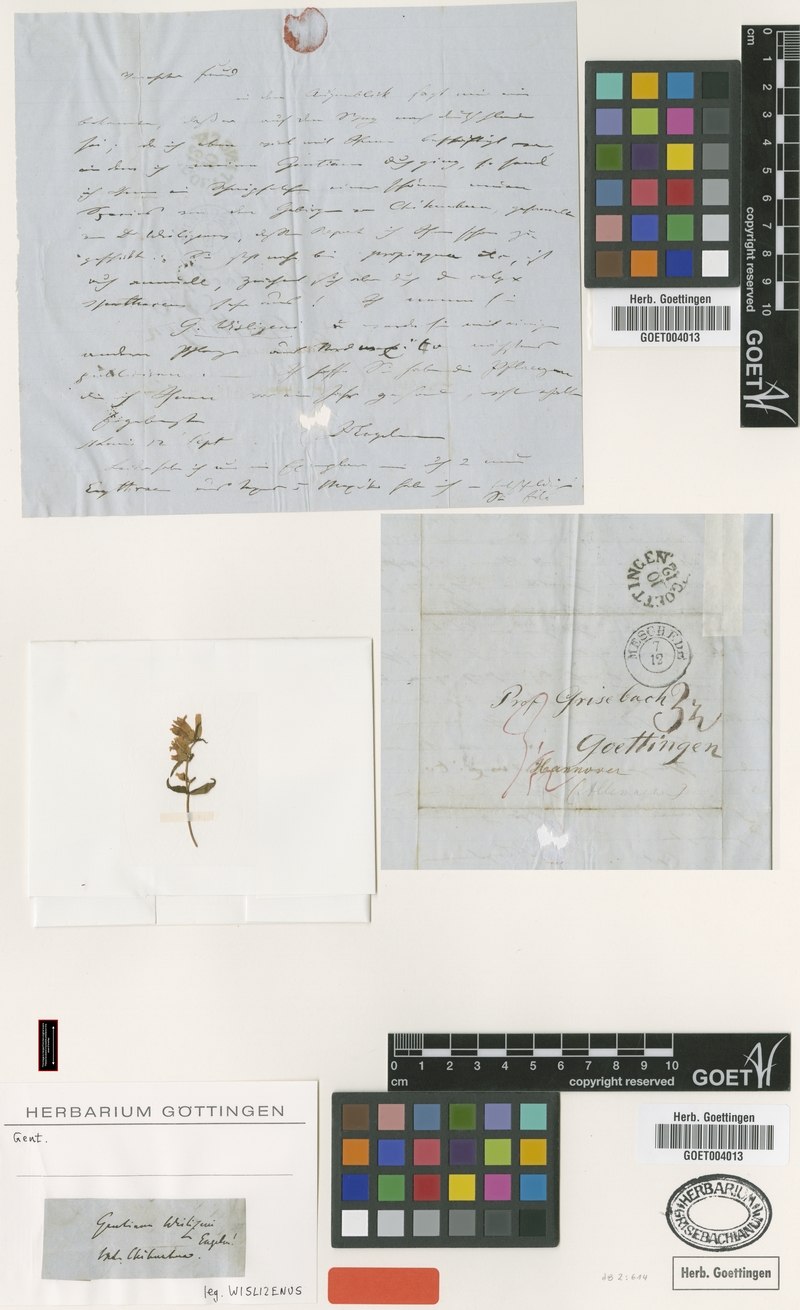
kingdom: Plantae
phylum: Tracheophyta
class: Magnoliopsida
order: Gentianales
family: Gentianaceae
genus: Gentianella
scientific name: Gentianella wislizeni
